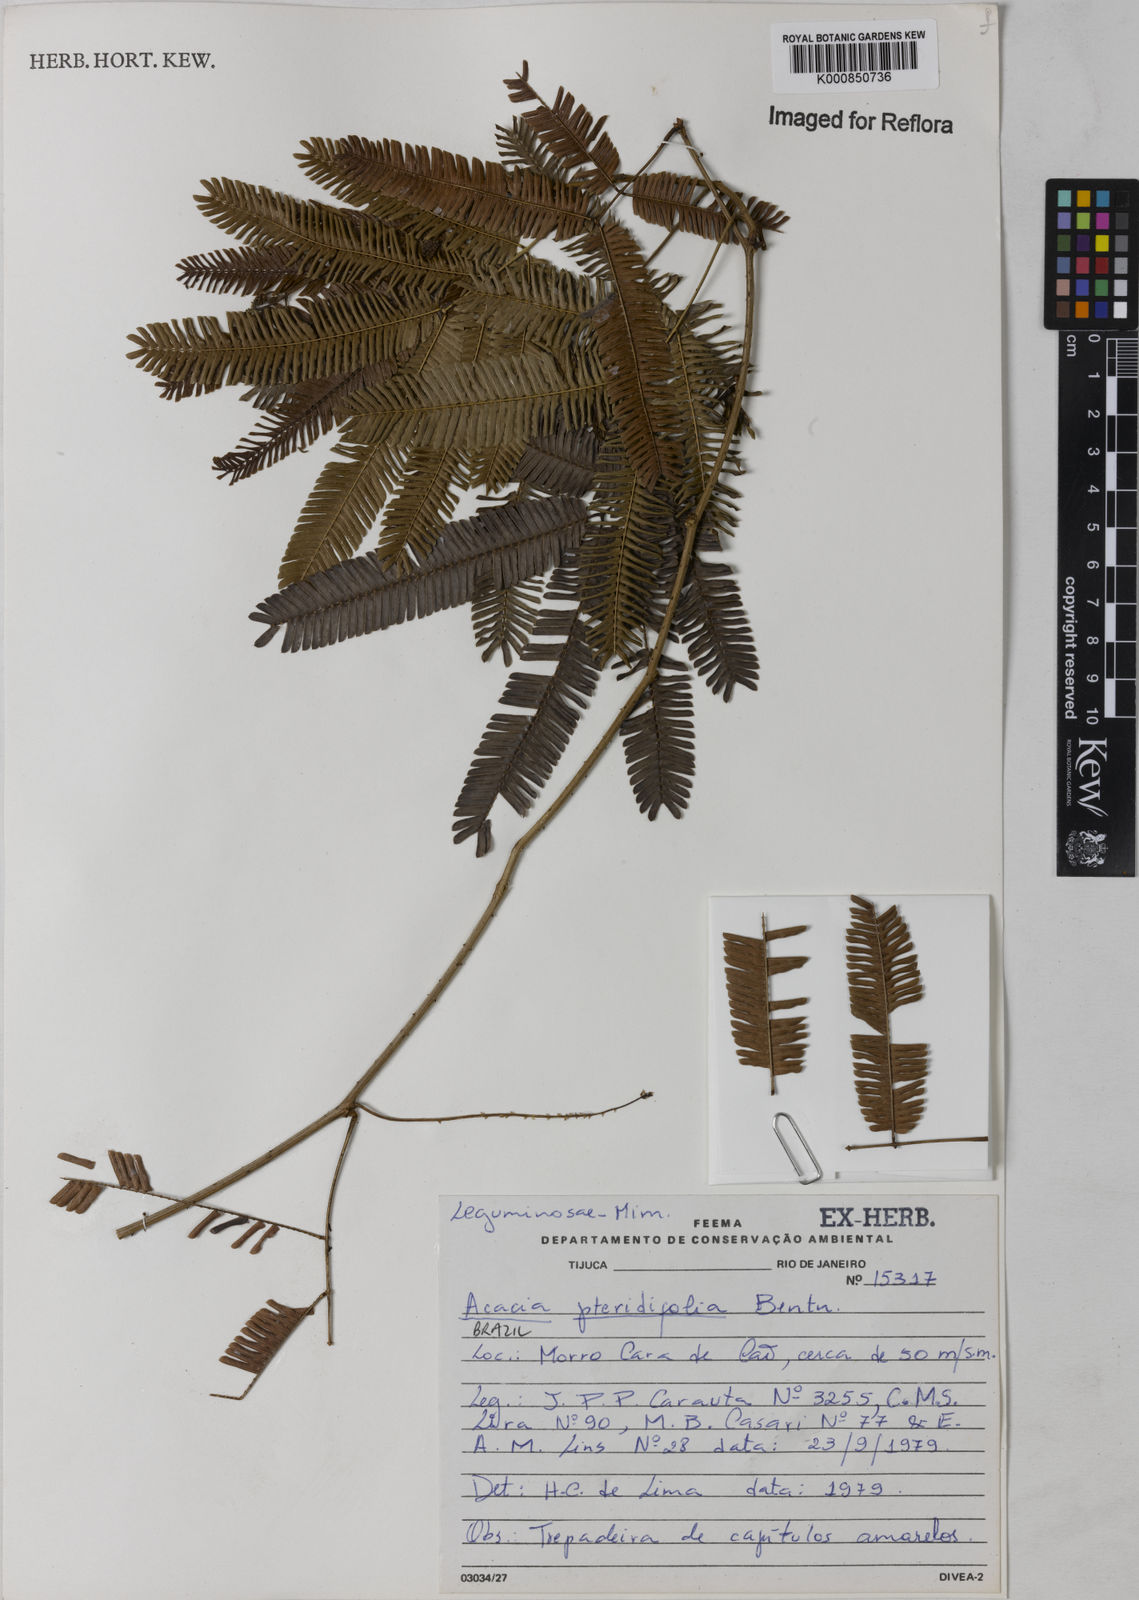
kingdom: Plantae
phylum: Tracheophyta
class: Magnoliopsida
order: Fabales
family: Fabaceae
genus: Senegalia
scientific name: Senegalia pteridifolia
